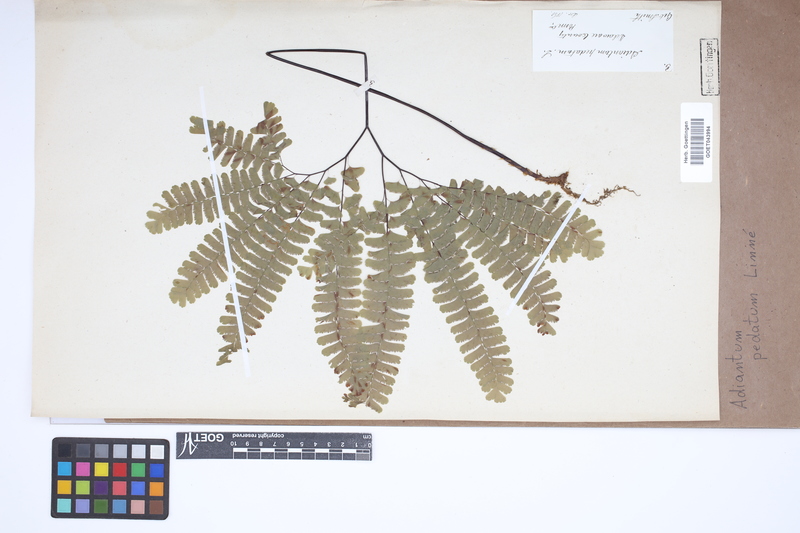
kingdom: Plantae
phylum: Tracheophyta
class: Polypodiopsida
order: Polypodiales
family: Pteridaceae
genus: Adiantum
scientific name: Adiantum pedatum
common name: Five-finger fern
